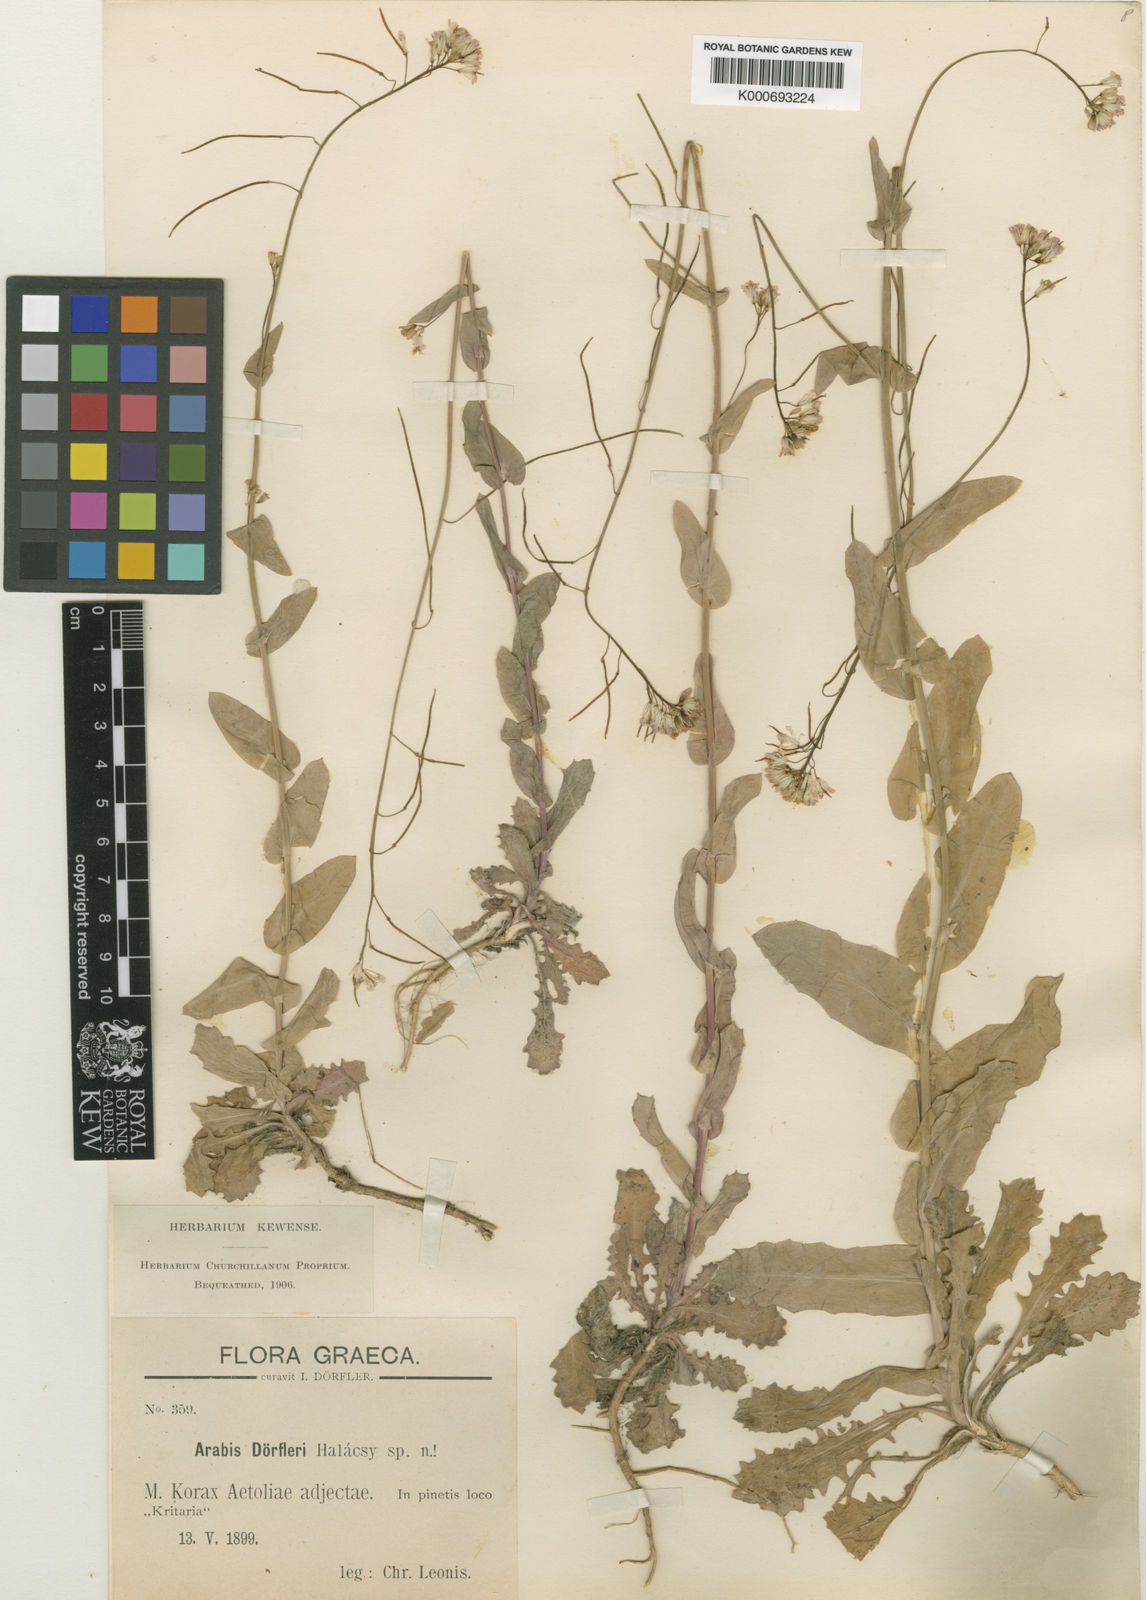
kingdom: Plantae
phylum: Tracheophyta
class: Magnoliopsida
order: Brassicales
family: Brassicaceae
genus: Arabis
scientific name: Arabis
